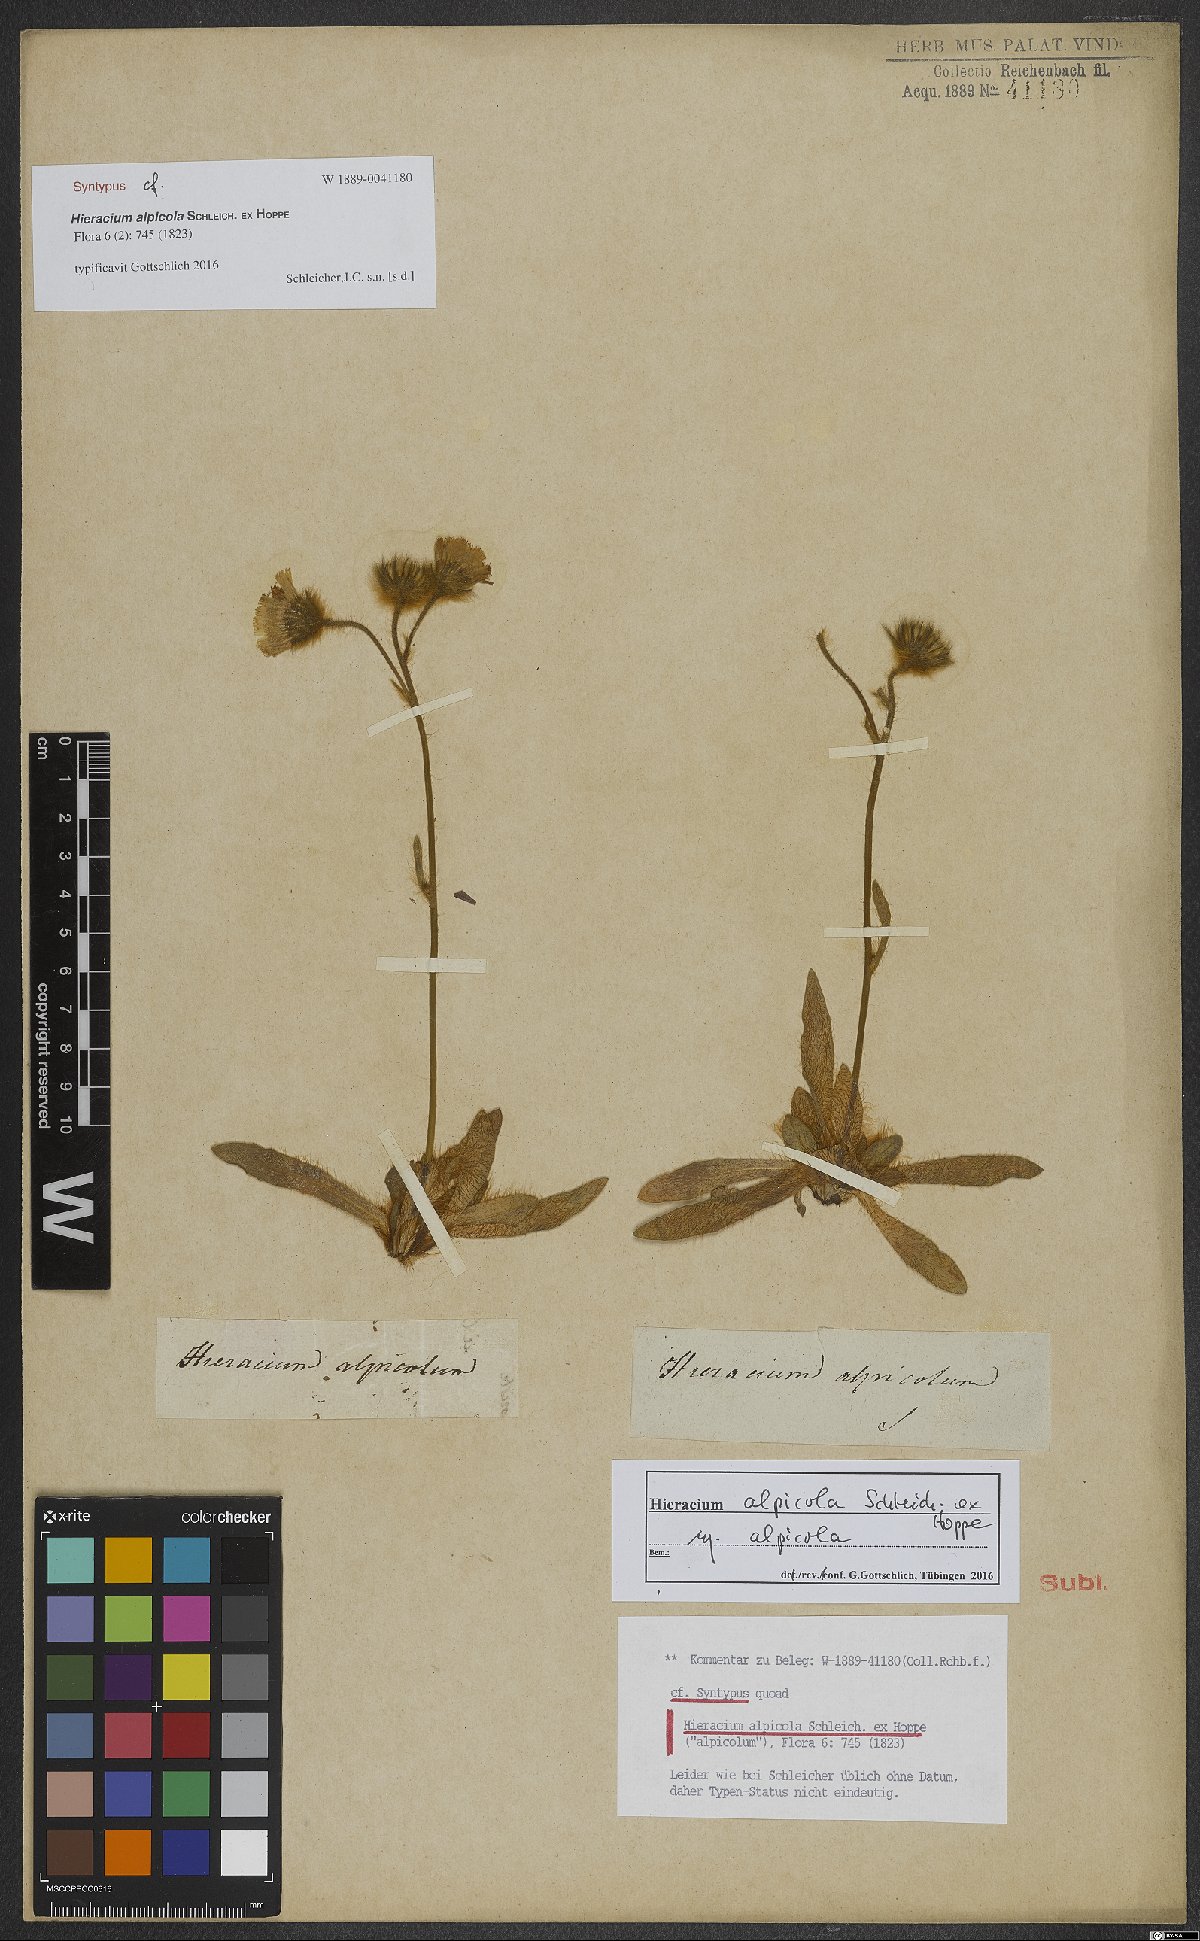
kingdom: Plantae
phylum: Tracheophyta
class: Magnoliopsida
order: Asterales
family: Asteraceae
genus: Pilosella
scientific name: Pilosella alpicola
